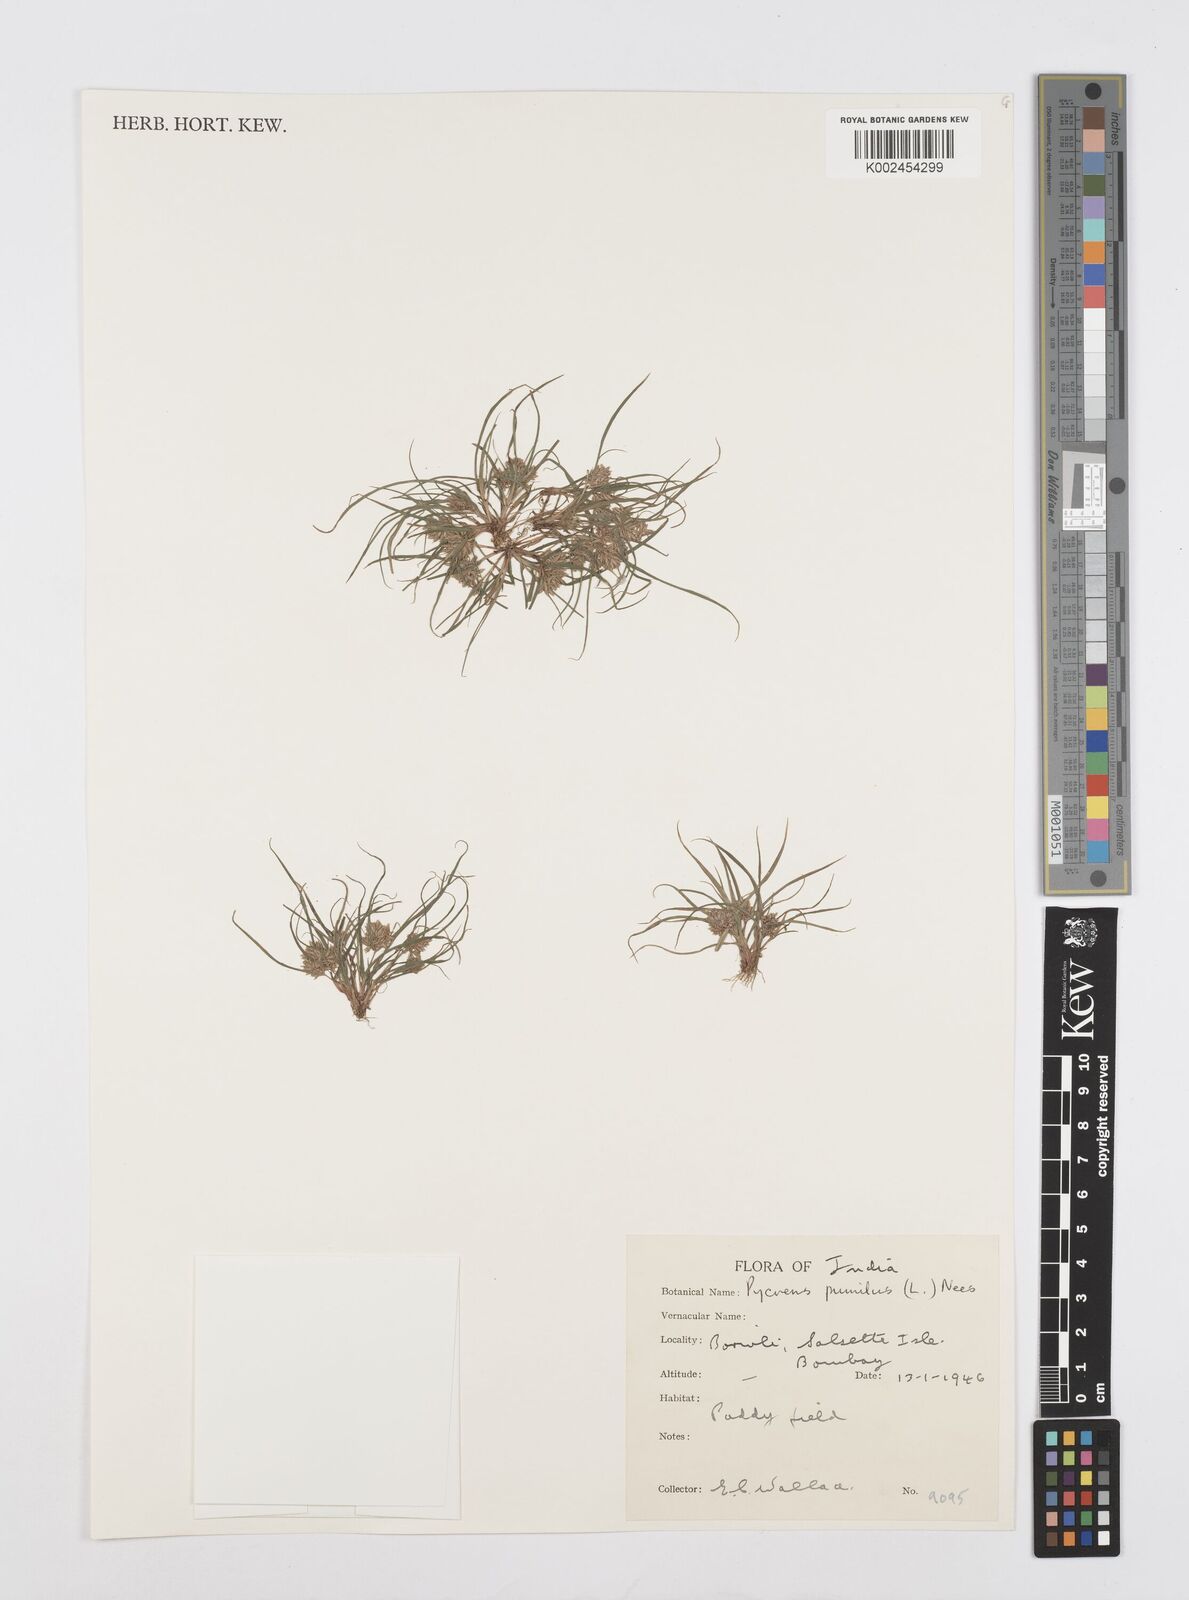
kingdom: Plantae
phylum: Tracheophyta
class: Liliopsida
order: Poales
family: Cyperaceae
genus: Cyperus
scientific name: Cyperus pumilus
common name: Low flatsedge
